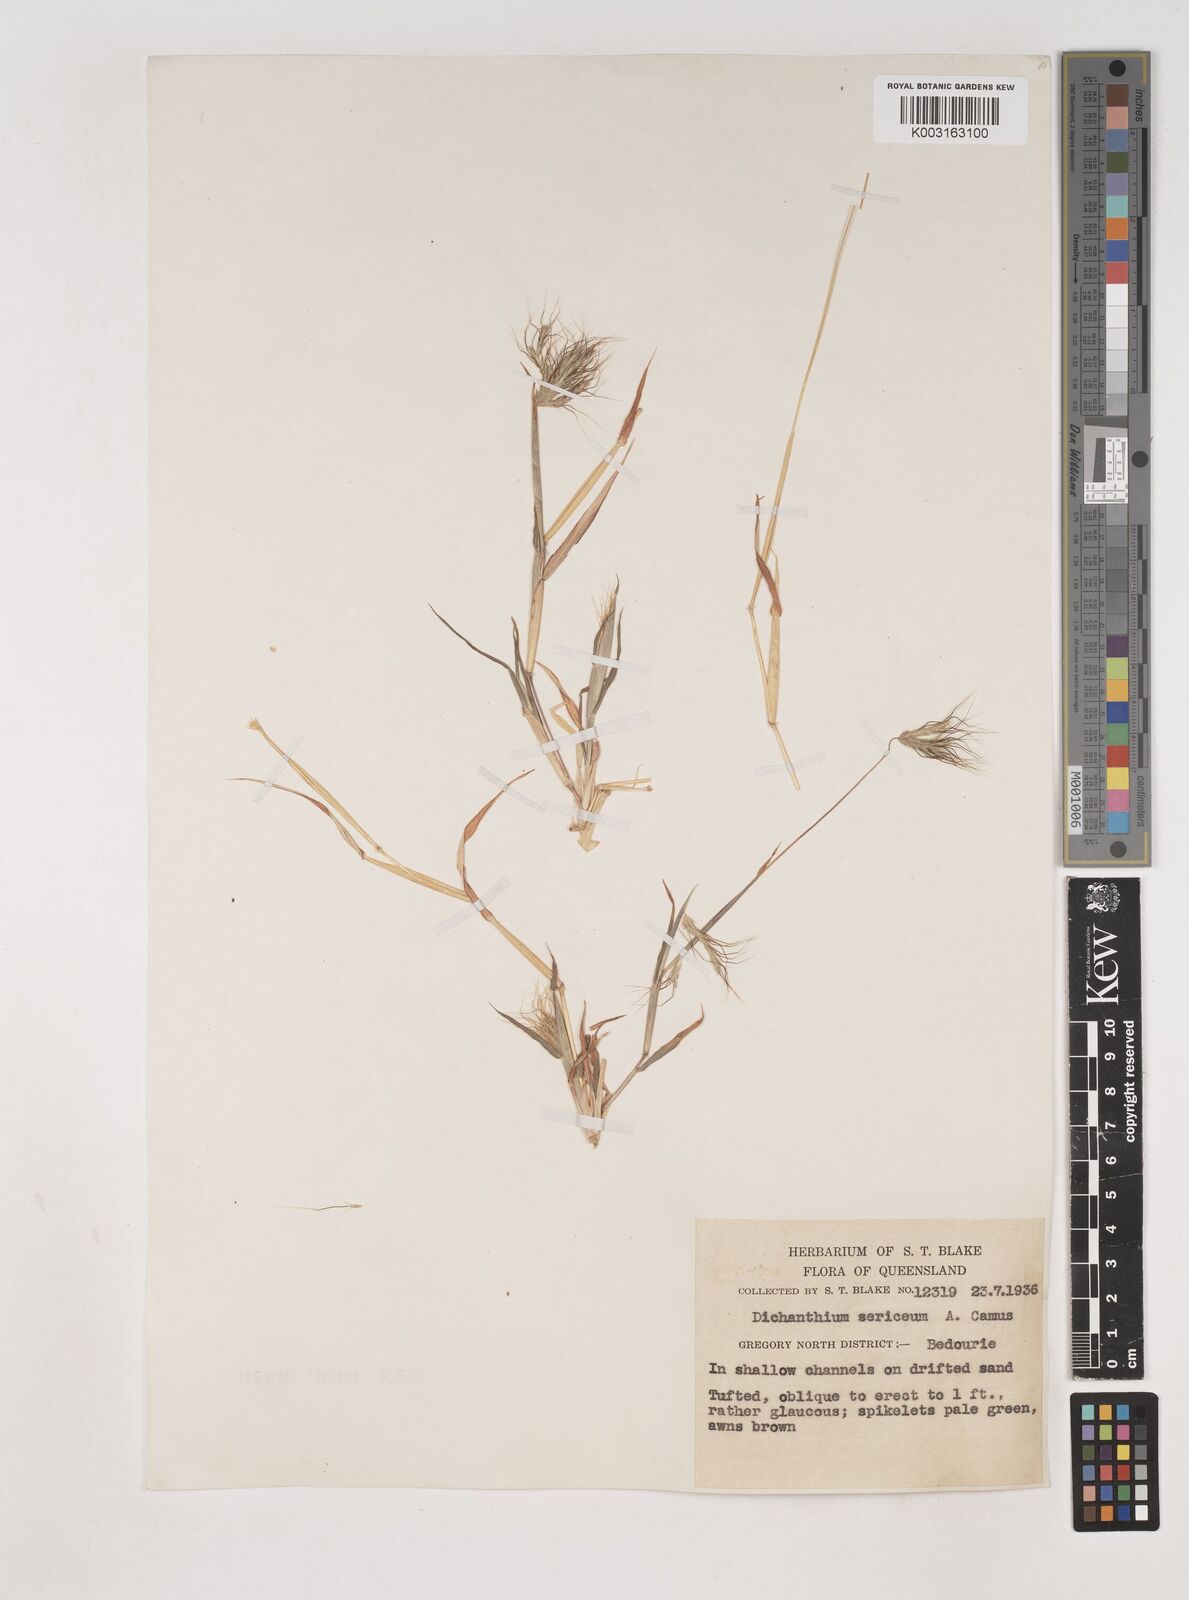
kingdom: Plantae
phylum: Tracheophyta
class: Liliopsida
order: Poales
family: Poaceae
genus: Dichanthium
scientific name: Dichanthium sericeum
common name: Silky bluestem
